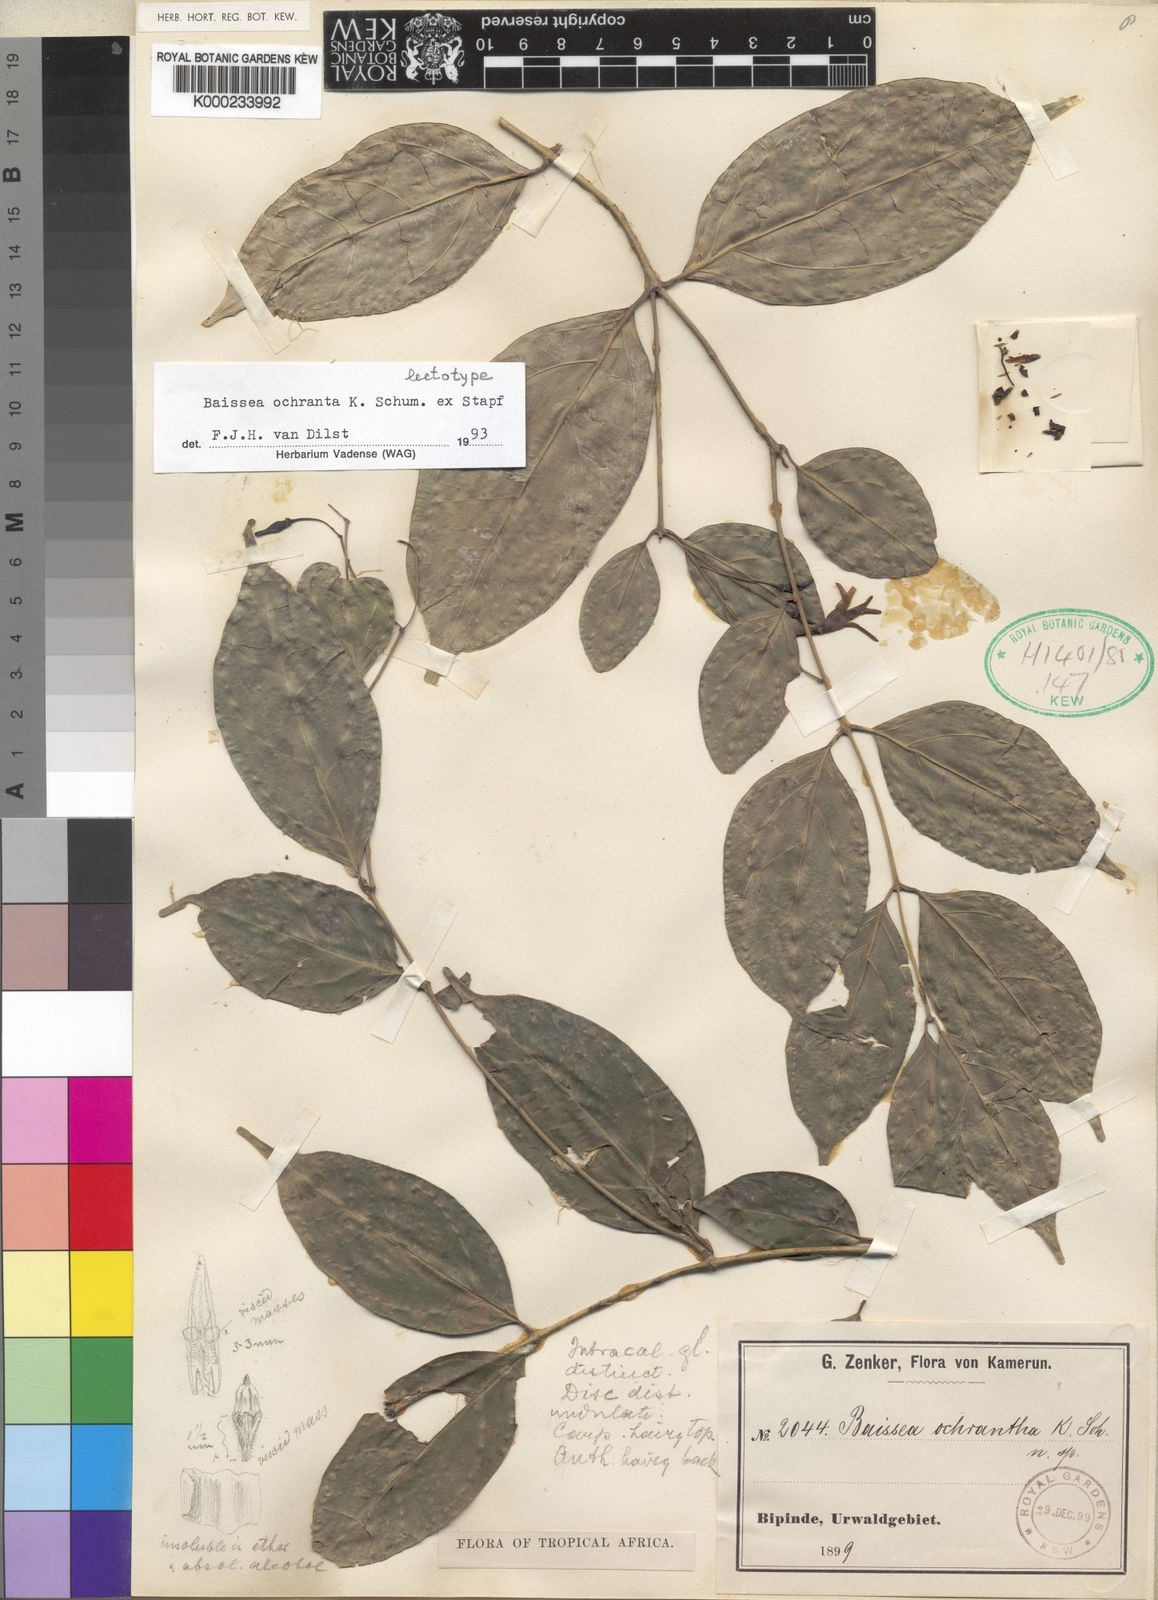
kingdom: Plantae
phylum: Tracheophyta
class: Magnoliopsida
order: Gentianales
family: Apocynaceae
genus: Baissea
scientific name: Baissea
